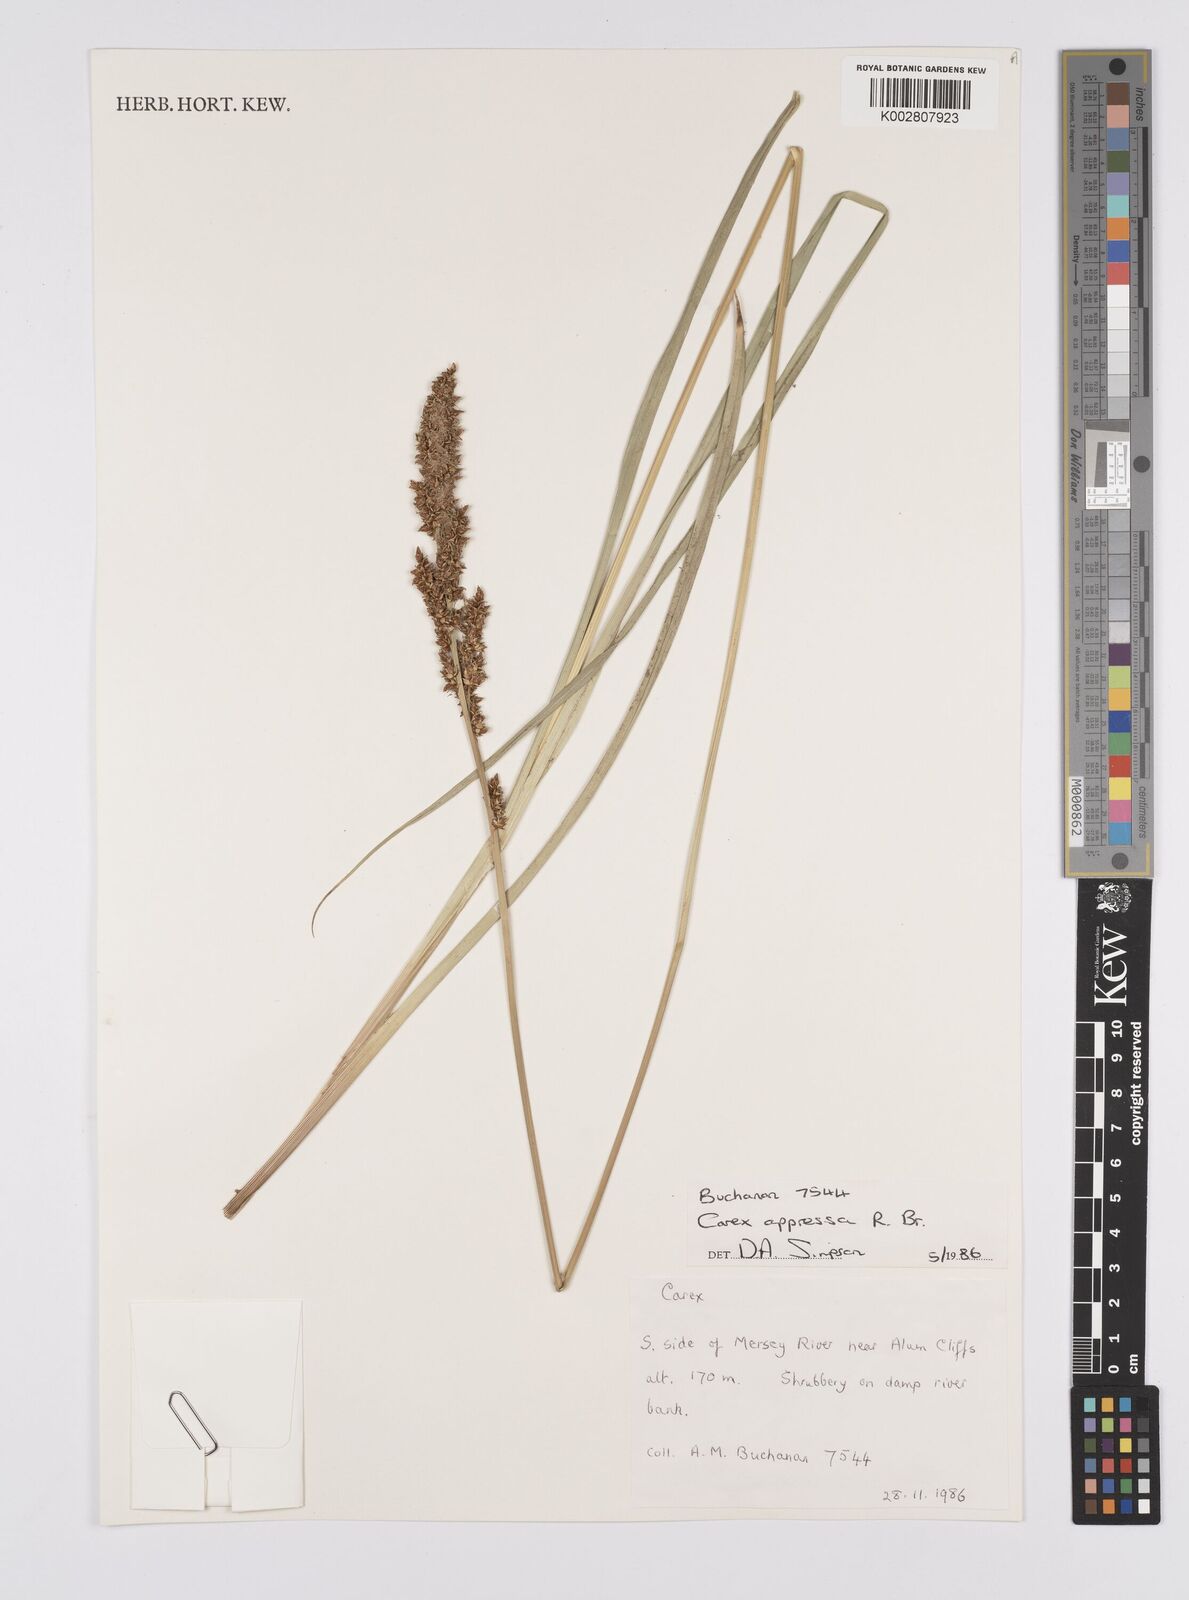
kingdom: Plantae
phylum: Tracheophyta
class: Liliopsida
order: Poales
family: Cyperaceae
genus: Carex
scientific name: Carex appressa
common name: Tussock sedge
